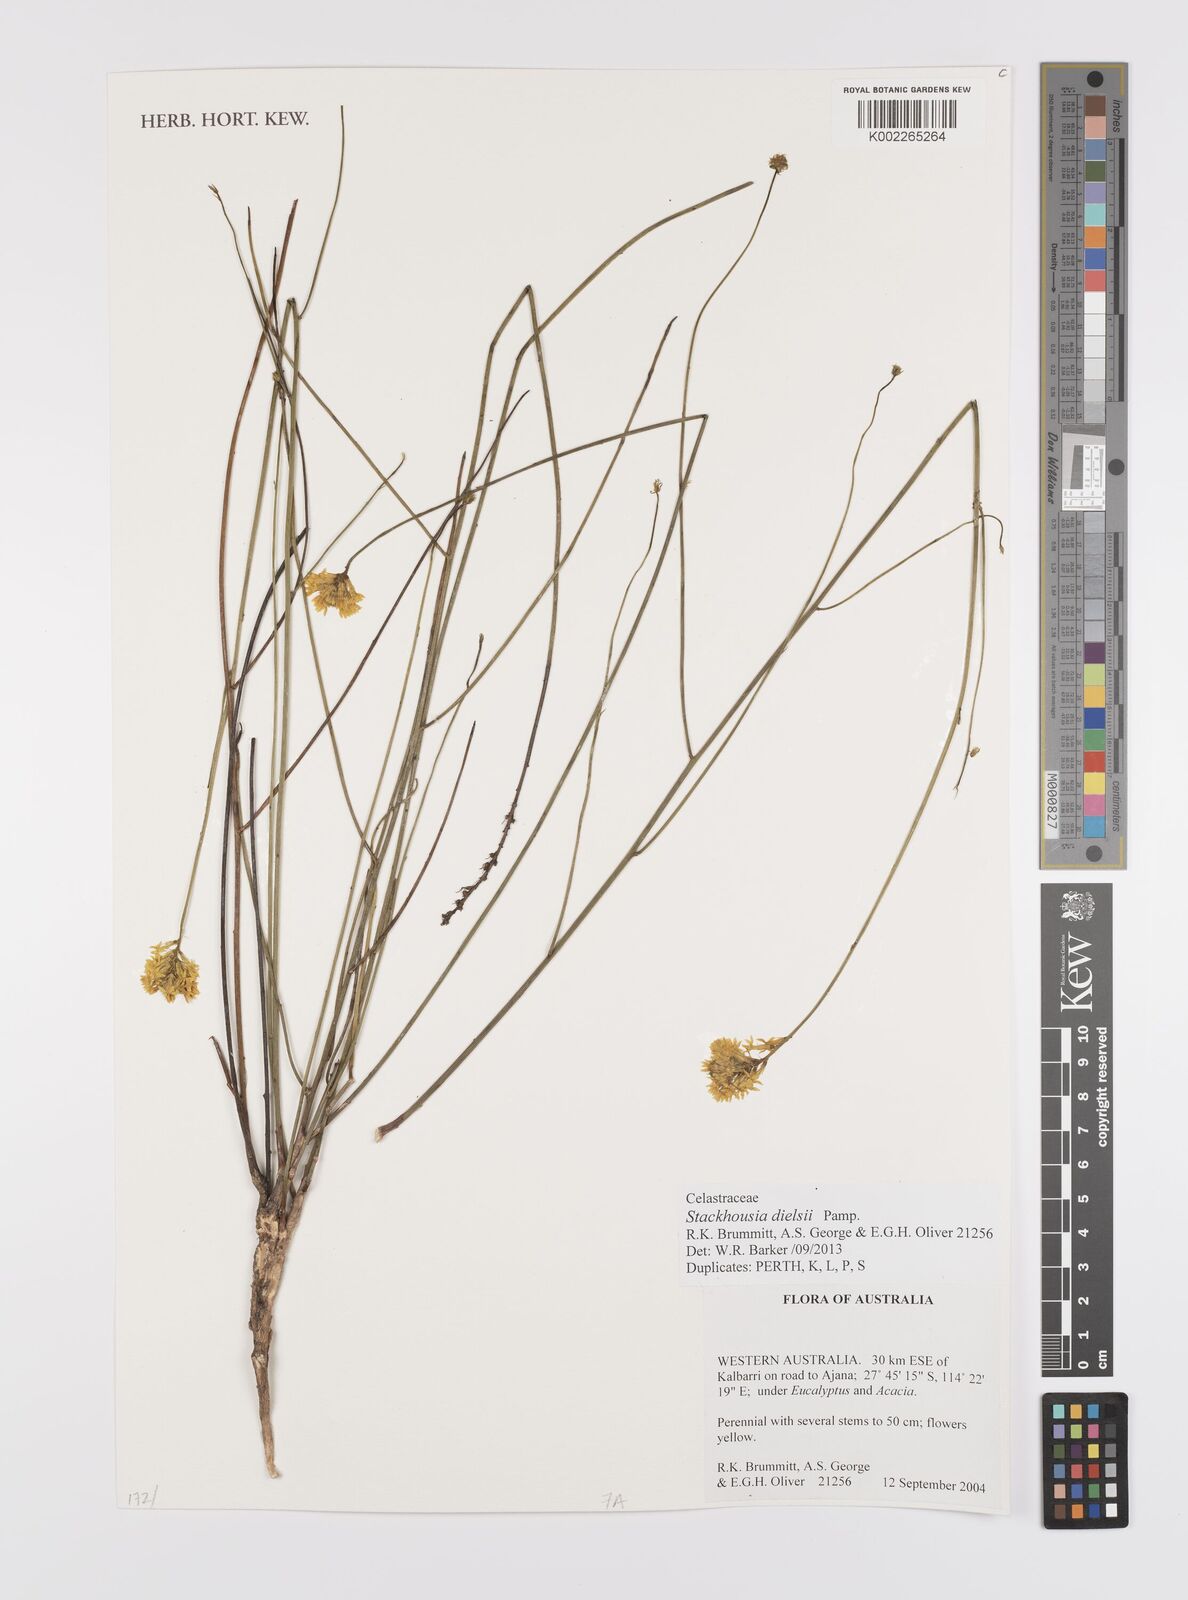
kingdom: Plantae
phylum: Tracheophyta
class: Magnoliopsida
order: Celastrales
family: Celastraceae
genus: Stackhousia
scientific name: Stackhousia dielsii
